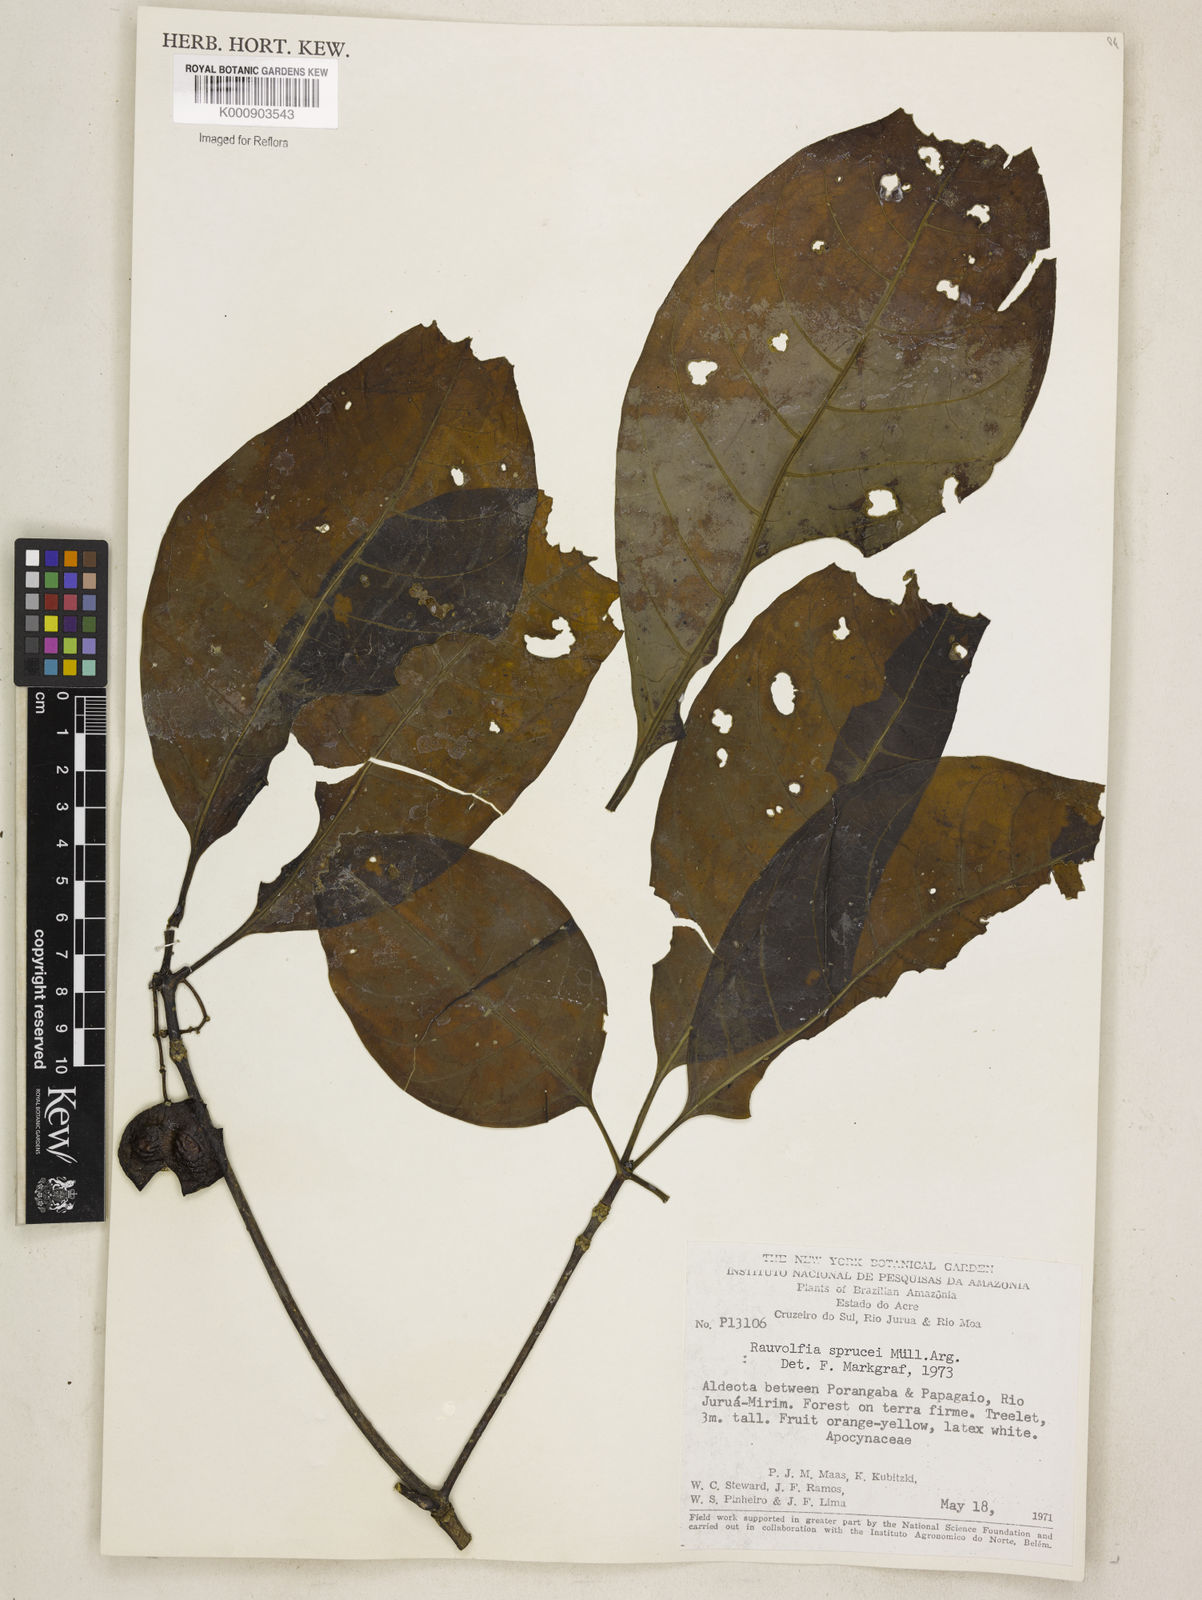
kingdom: Plantae
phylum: Tracheophyta
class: Magnoliopsida
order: Gentianales
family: Apocynaceae
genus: Rauvolfia
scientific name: Rauvolfia
